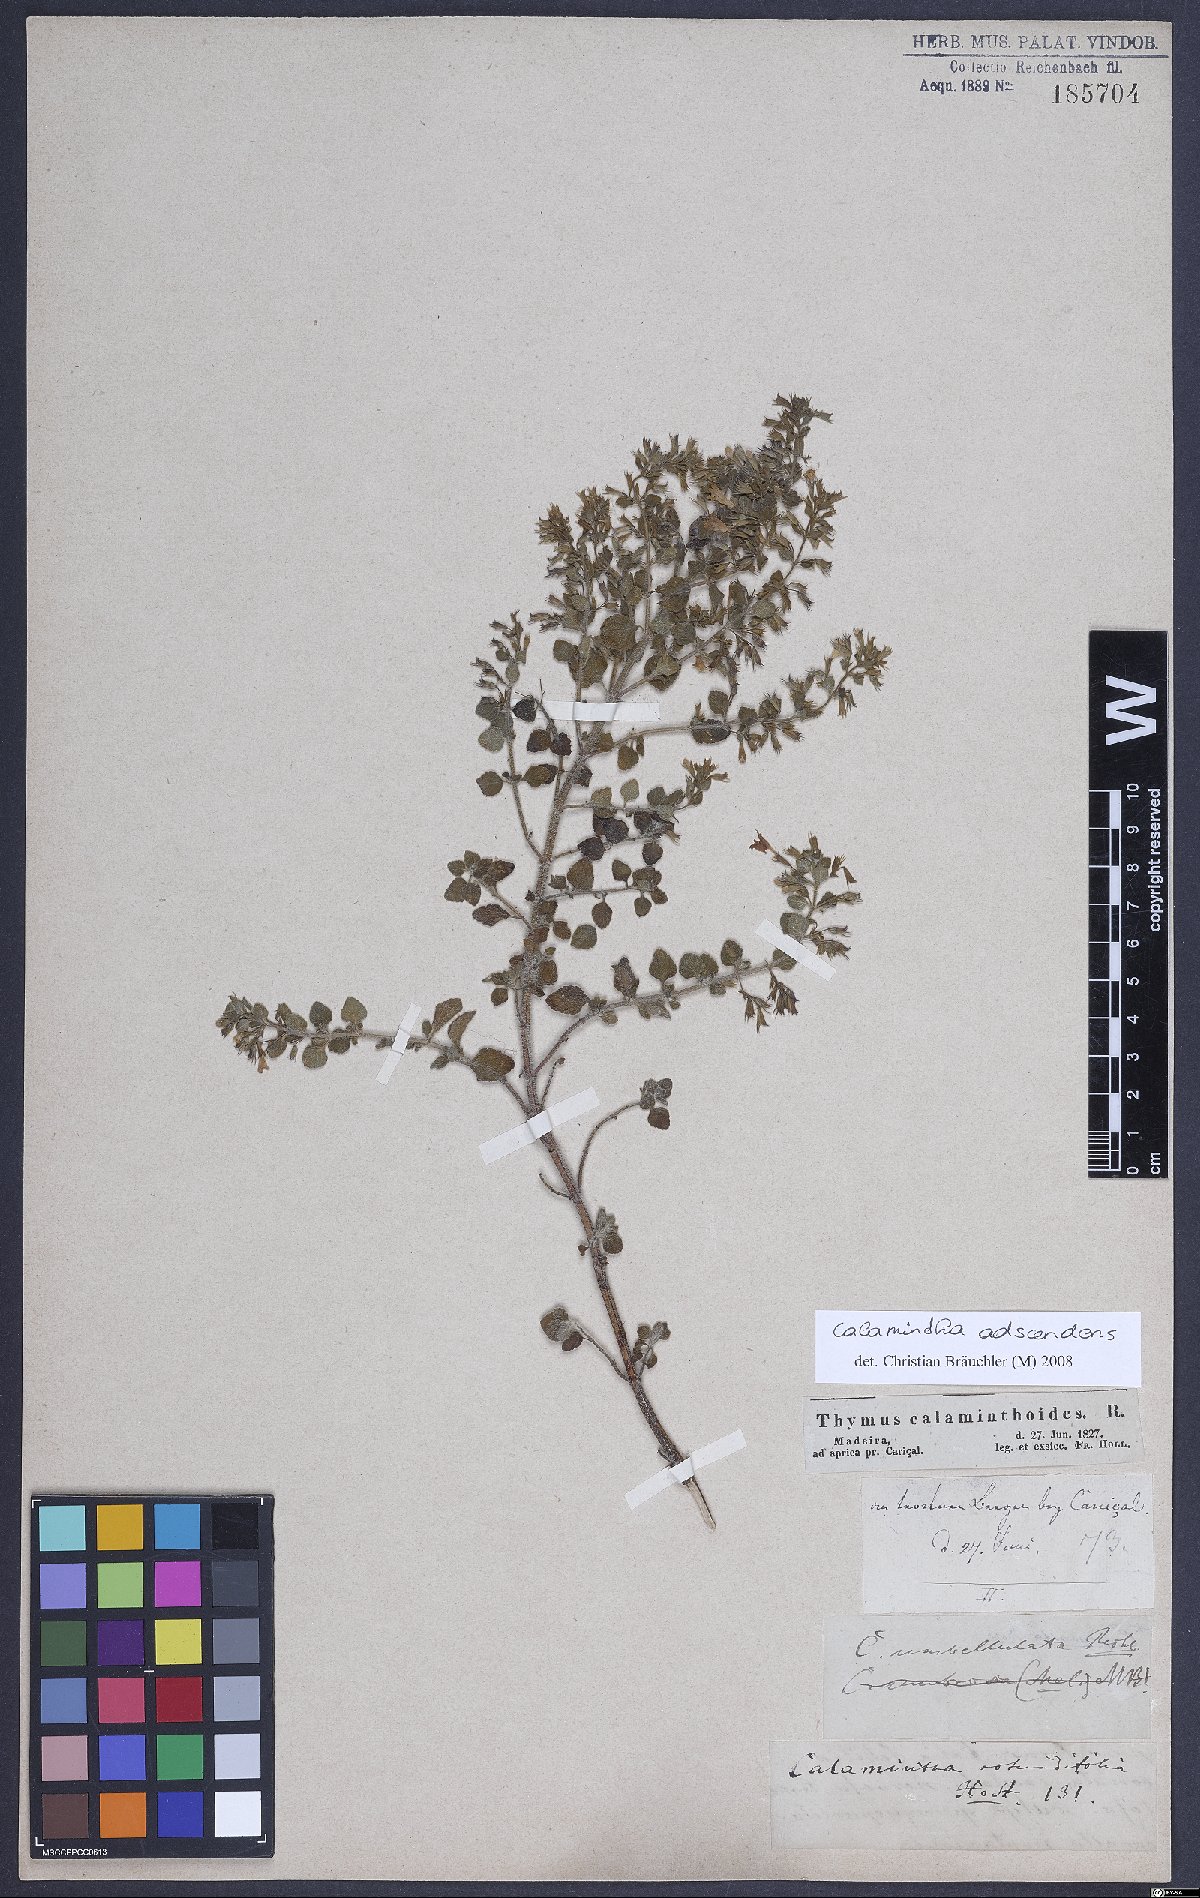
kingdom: Plantae
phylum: Tracheophyta
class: Magnoliopsida
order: Lamiales
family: Lamiaceae
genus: Clinopodium
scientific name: Clinopodium menthifolium
